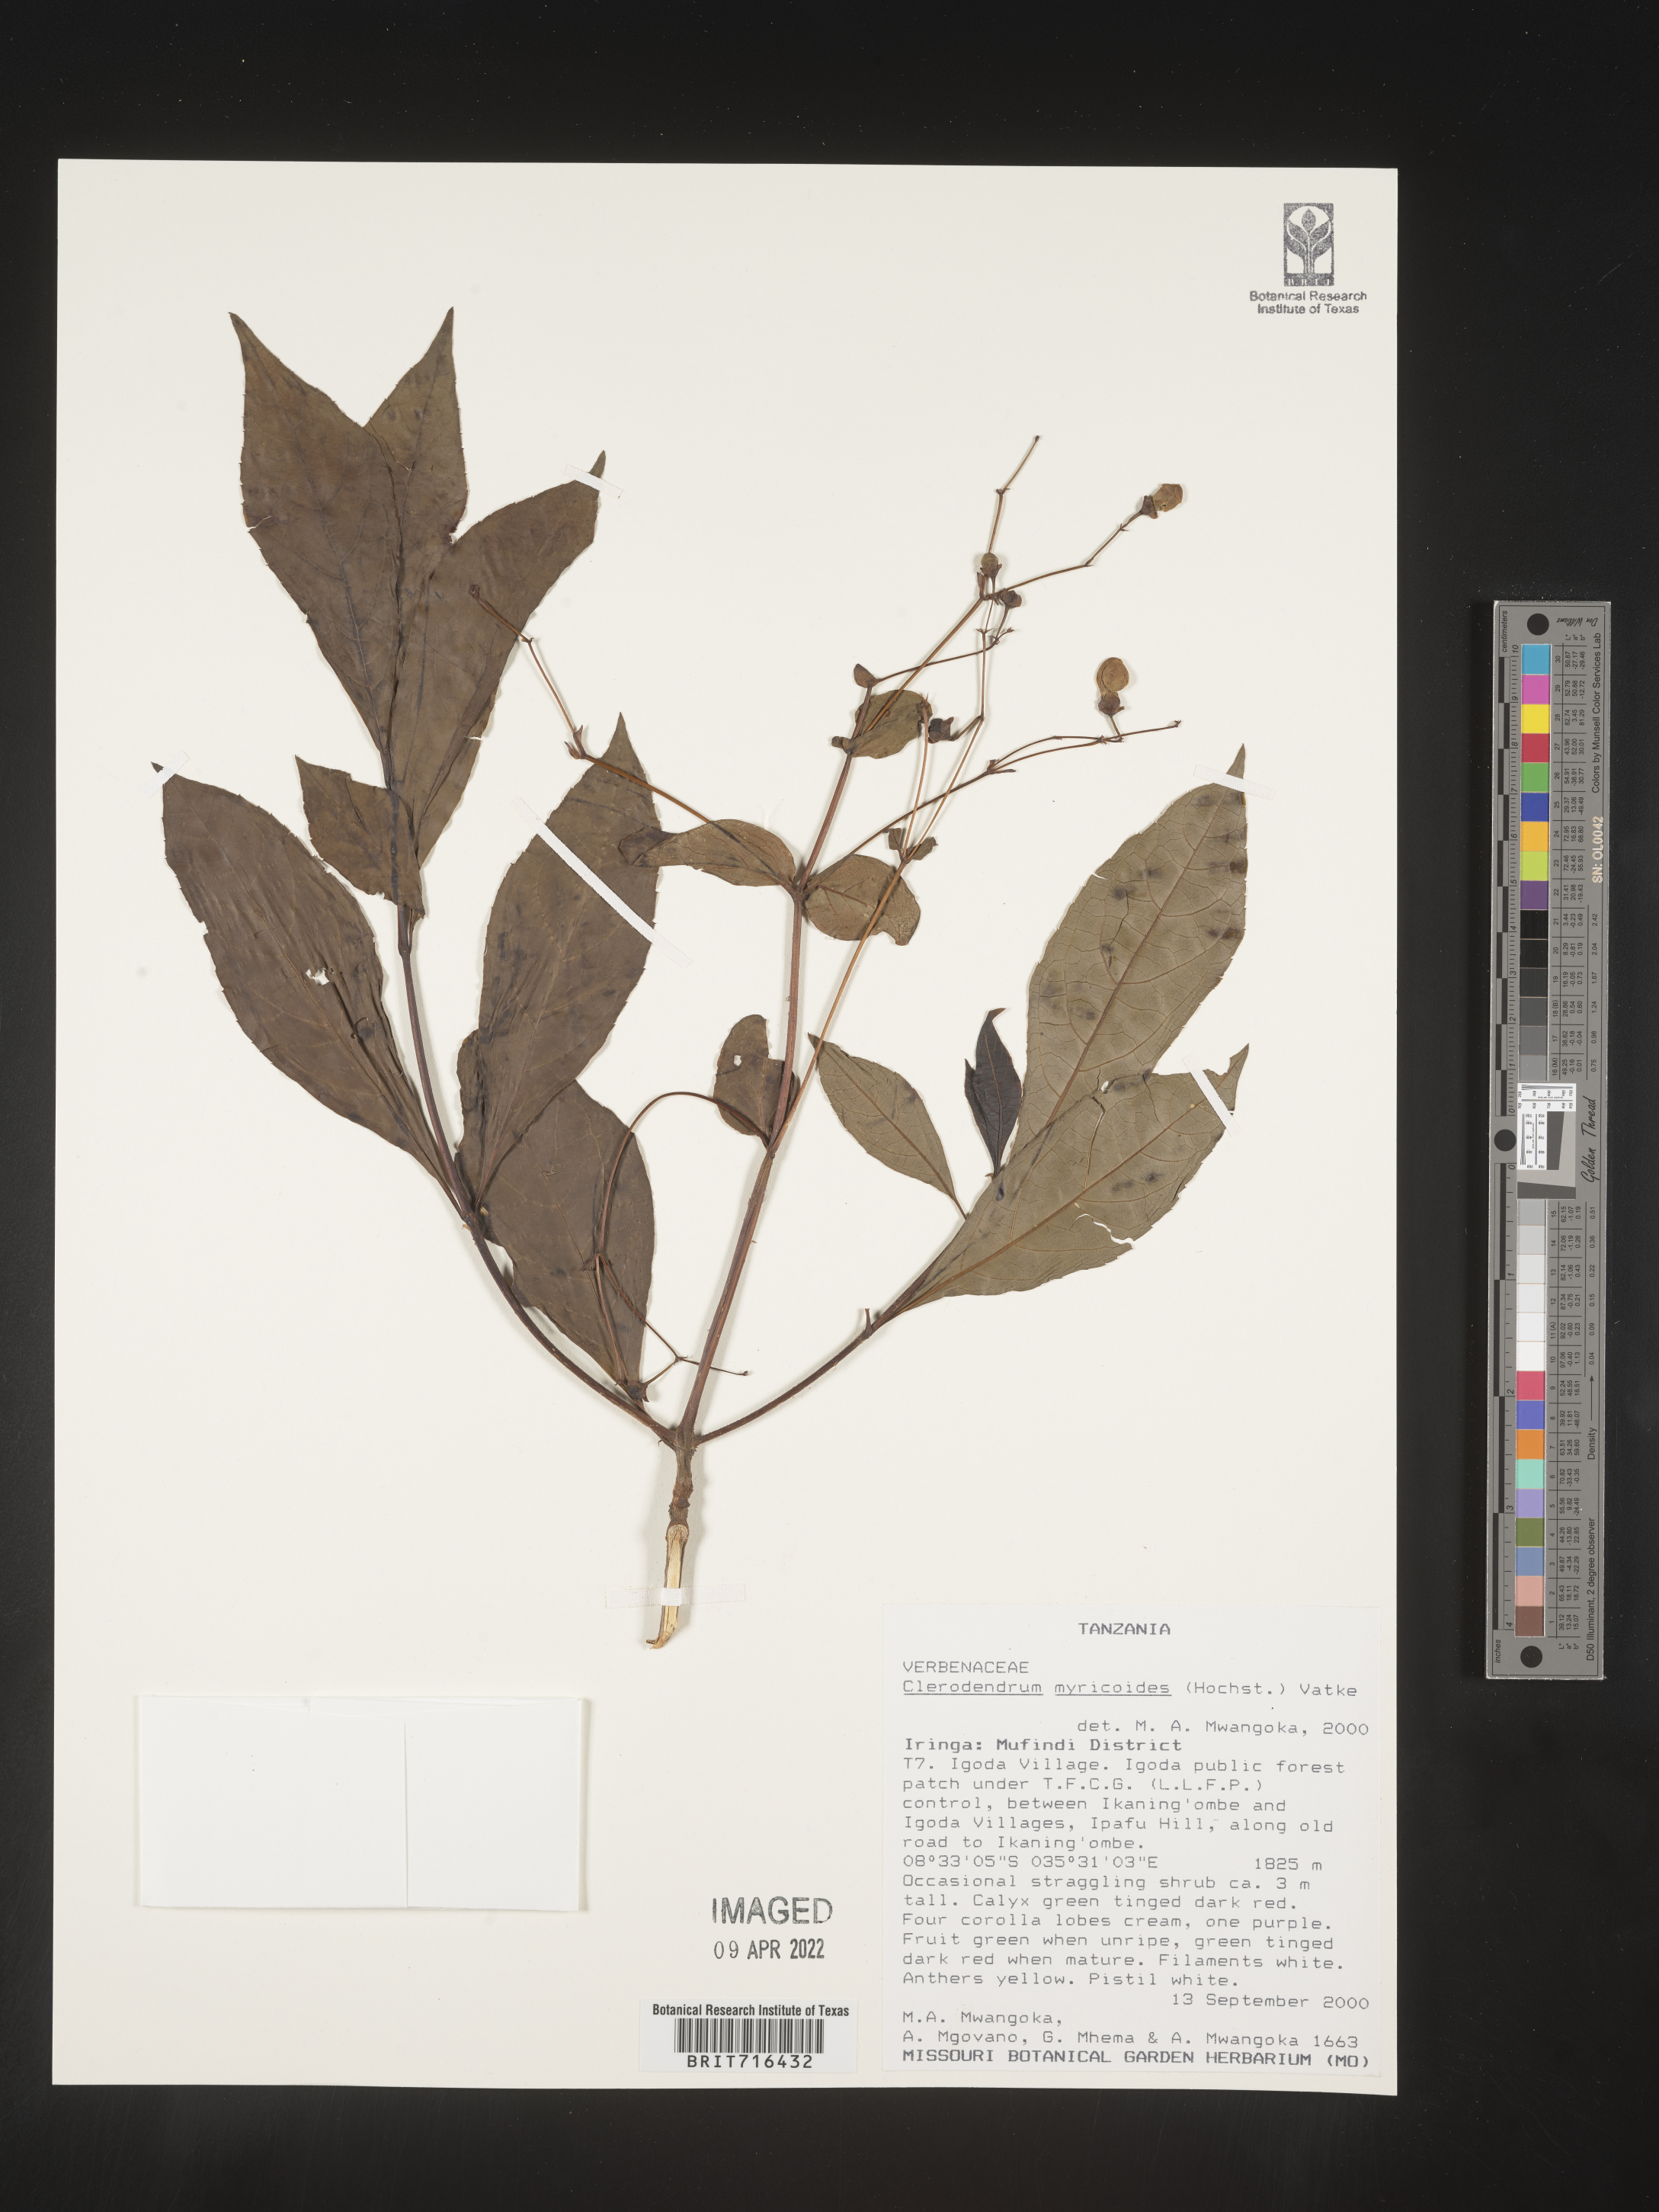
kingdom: Plantae
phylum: Tracheophyta
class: Magnoliopsida
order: Lamiales
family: Lamiaceae
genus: Clerodendrum
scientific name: Clerodendrum
